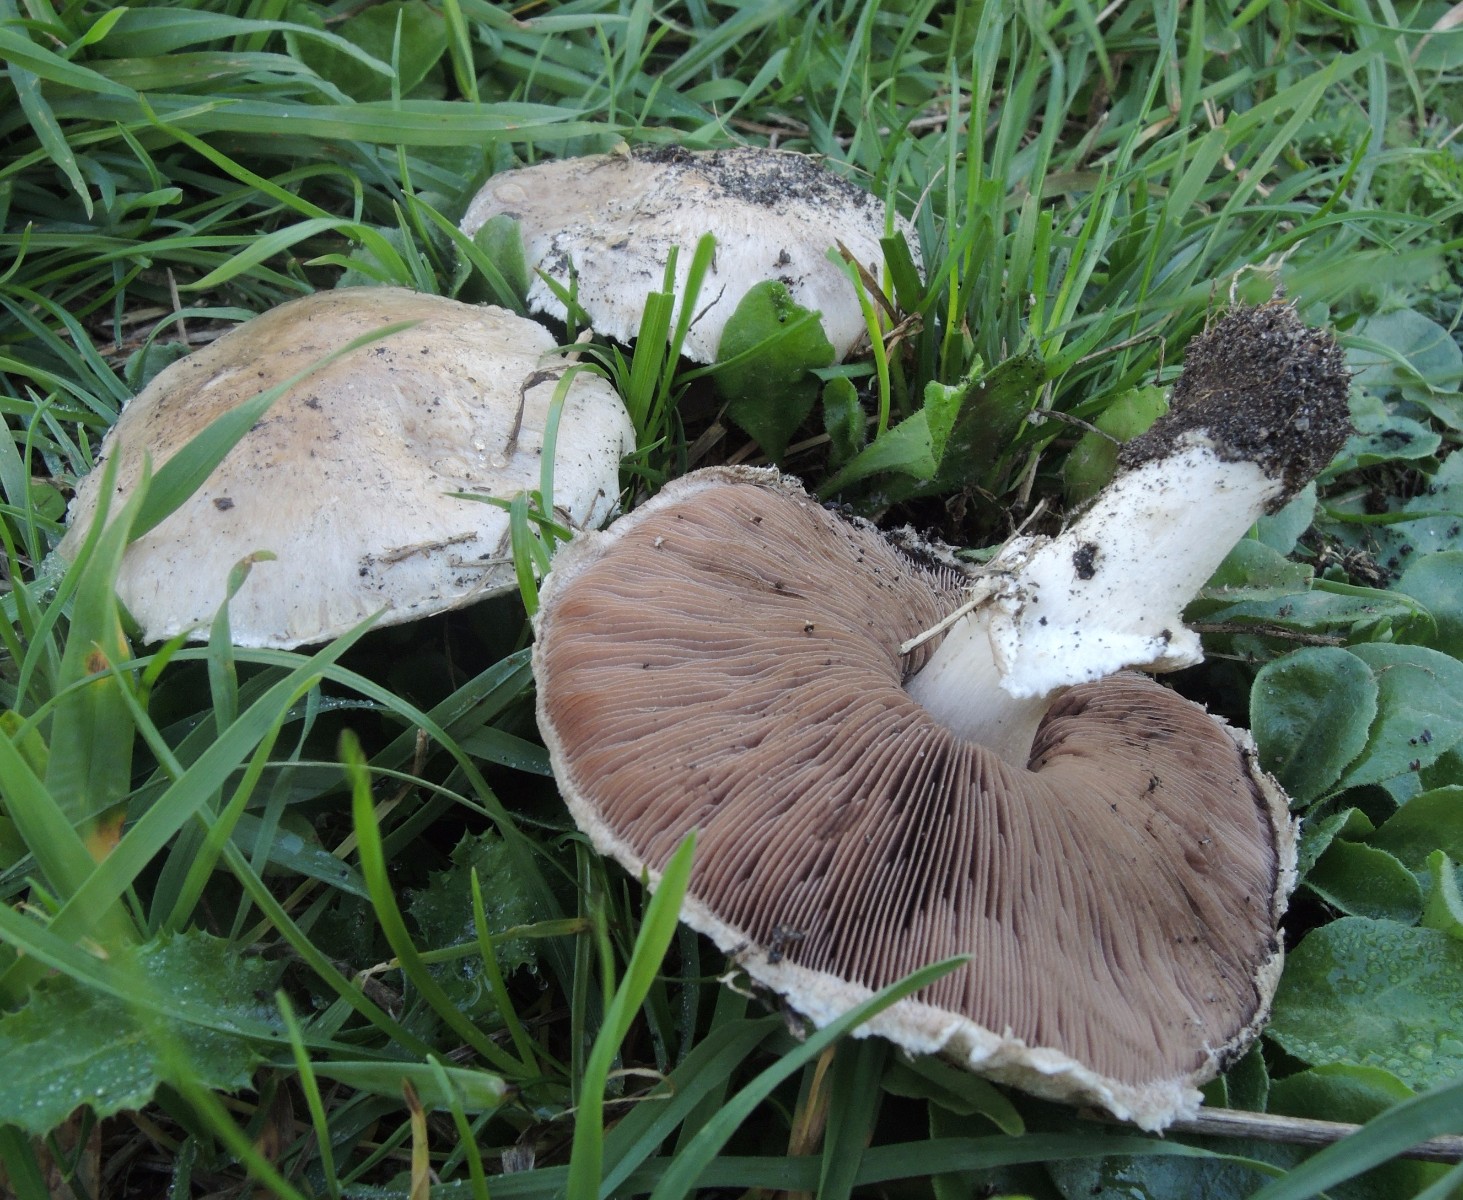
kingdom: Fungi
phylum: Basidiomycota
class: Agaricomycetes
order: Agaricales
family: Agaricaceae
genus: Agaricus
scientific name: Agaricus
